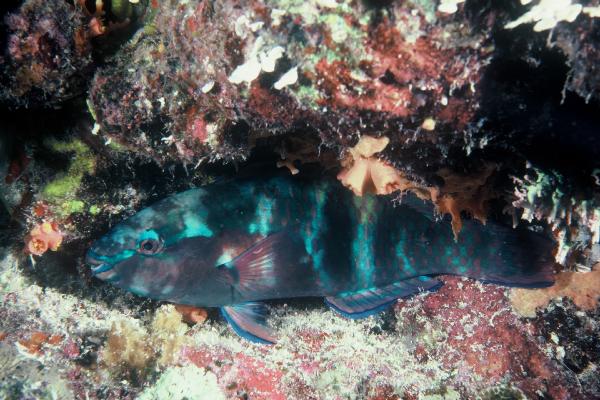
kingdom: Animalia
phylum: Chordata
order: Perciformes
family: Scaridae
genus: Scarus
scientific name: Scarus schlegeli
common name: Schlegel's parrotfish
